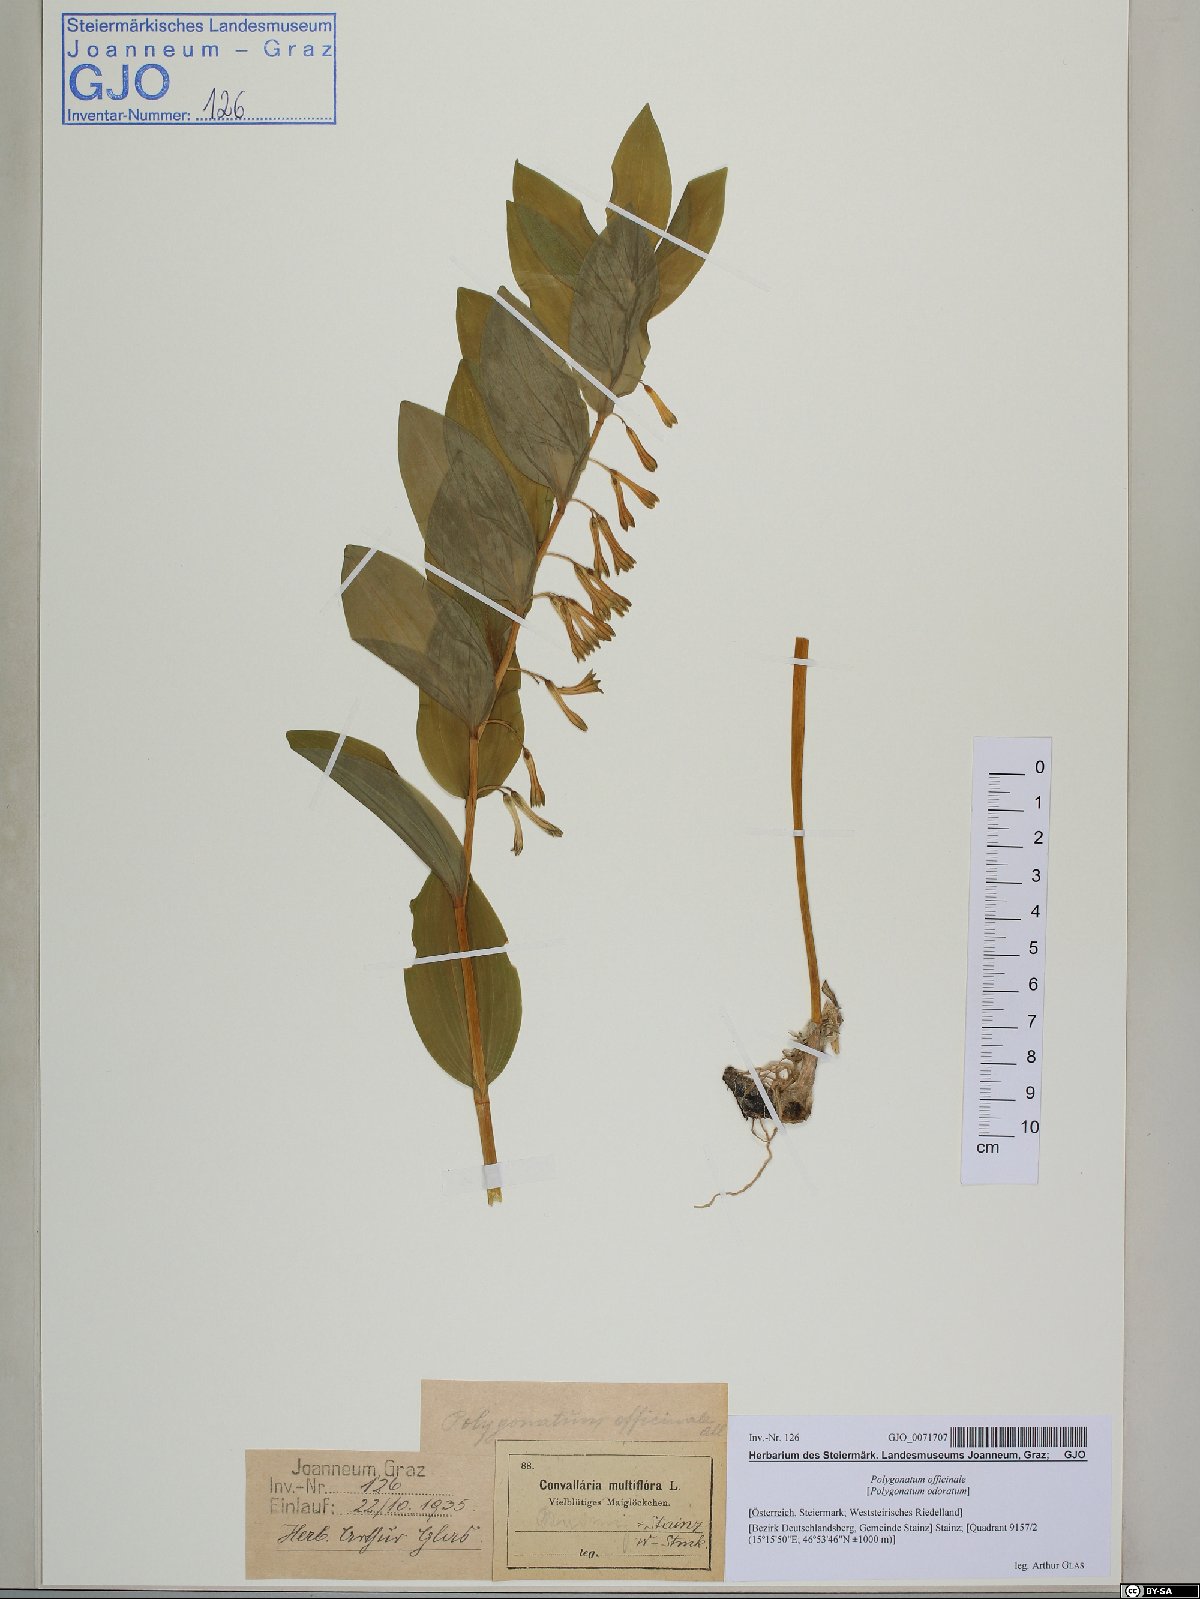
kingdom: Plantae
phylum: Tracheophyta
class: Liliopsida
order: Asparagales
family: Asparagaceae
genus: Polygonatum
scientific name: Polygonatum odoratum
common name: Angular solomon's-seal
